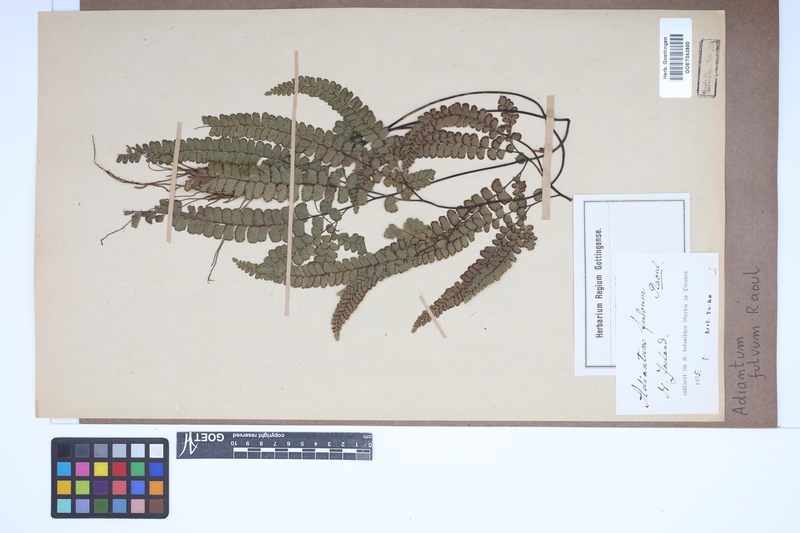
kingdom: Plantae
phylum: Tracheophyta
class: Polypodiopsida
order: Polypodiales
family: Pteridaceae
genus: Adiantum
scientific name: Adiantum fulvum
